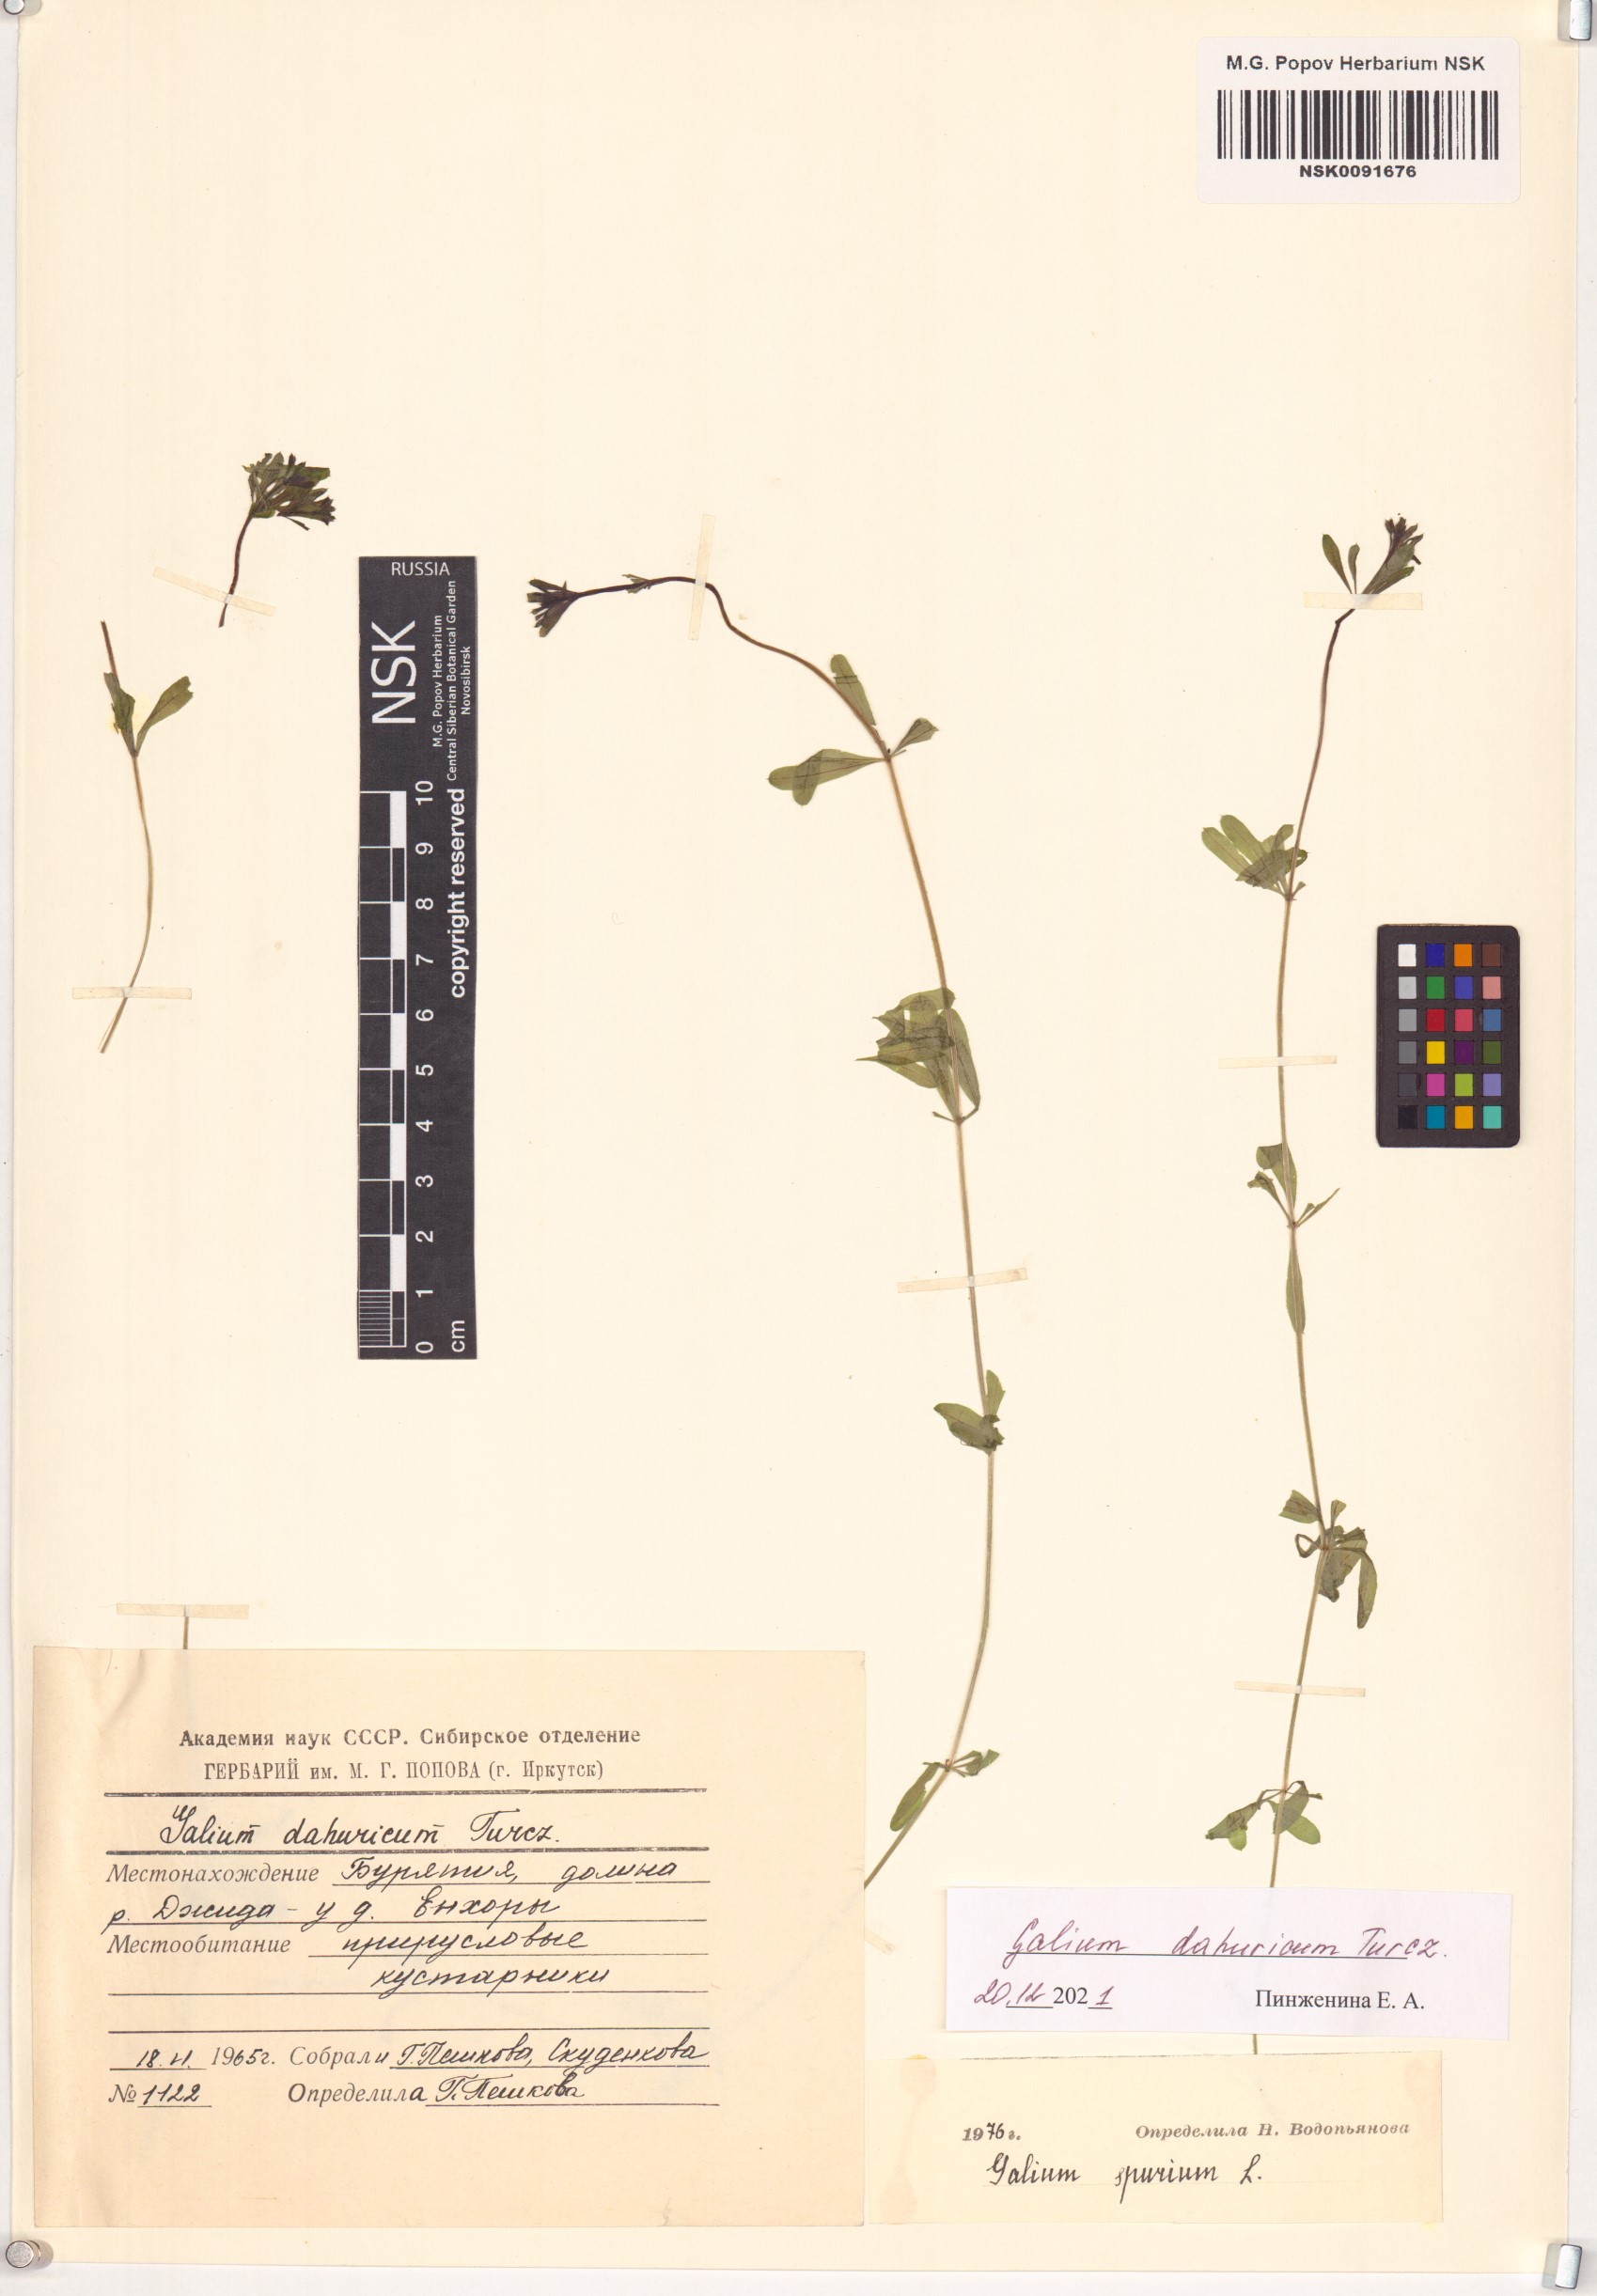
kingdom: Plantae
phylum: Tracheophyta
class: Magnoliopsida
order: Gentianales
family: Rubiaceae
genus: Galium
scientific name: Galium dahuricum
